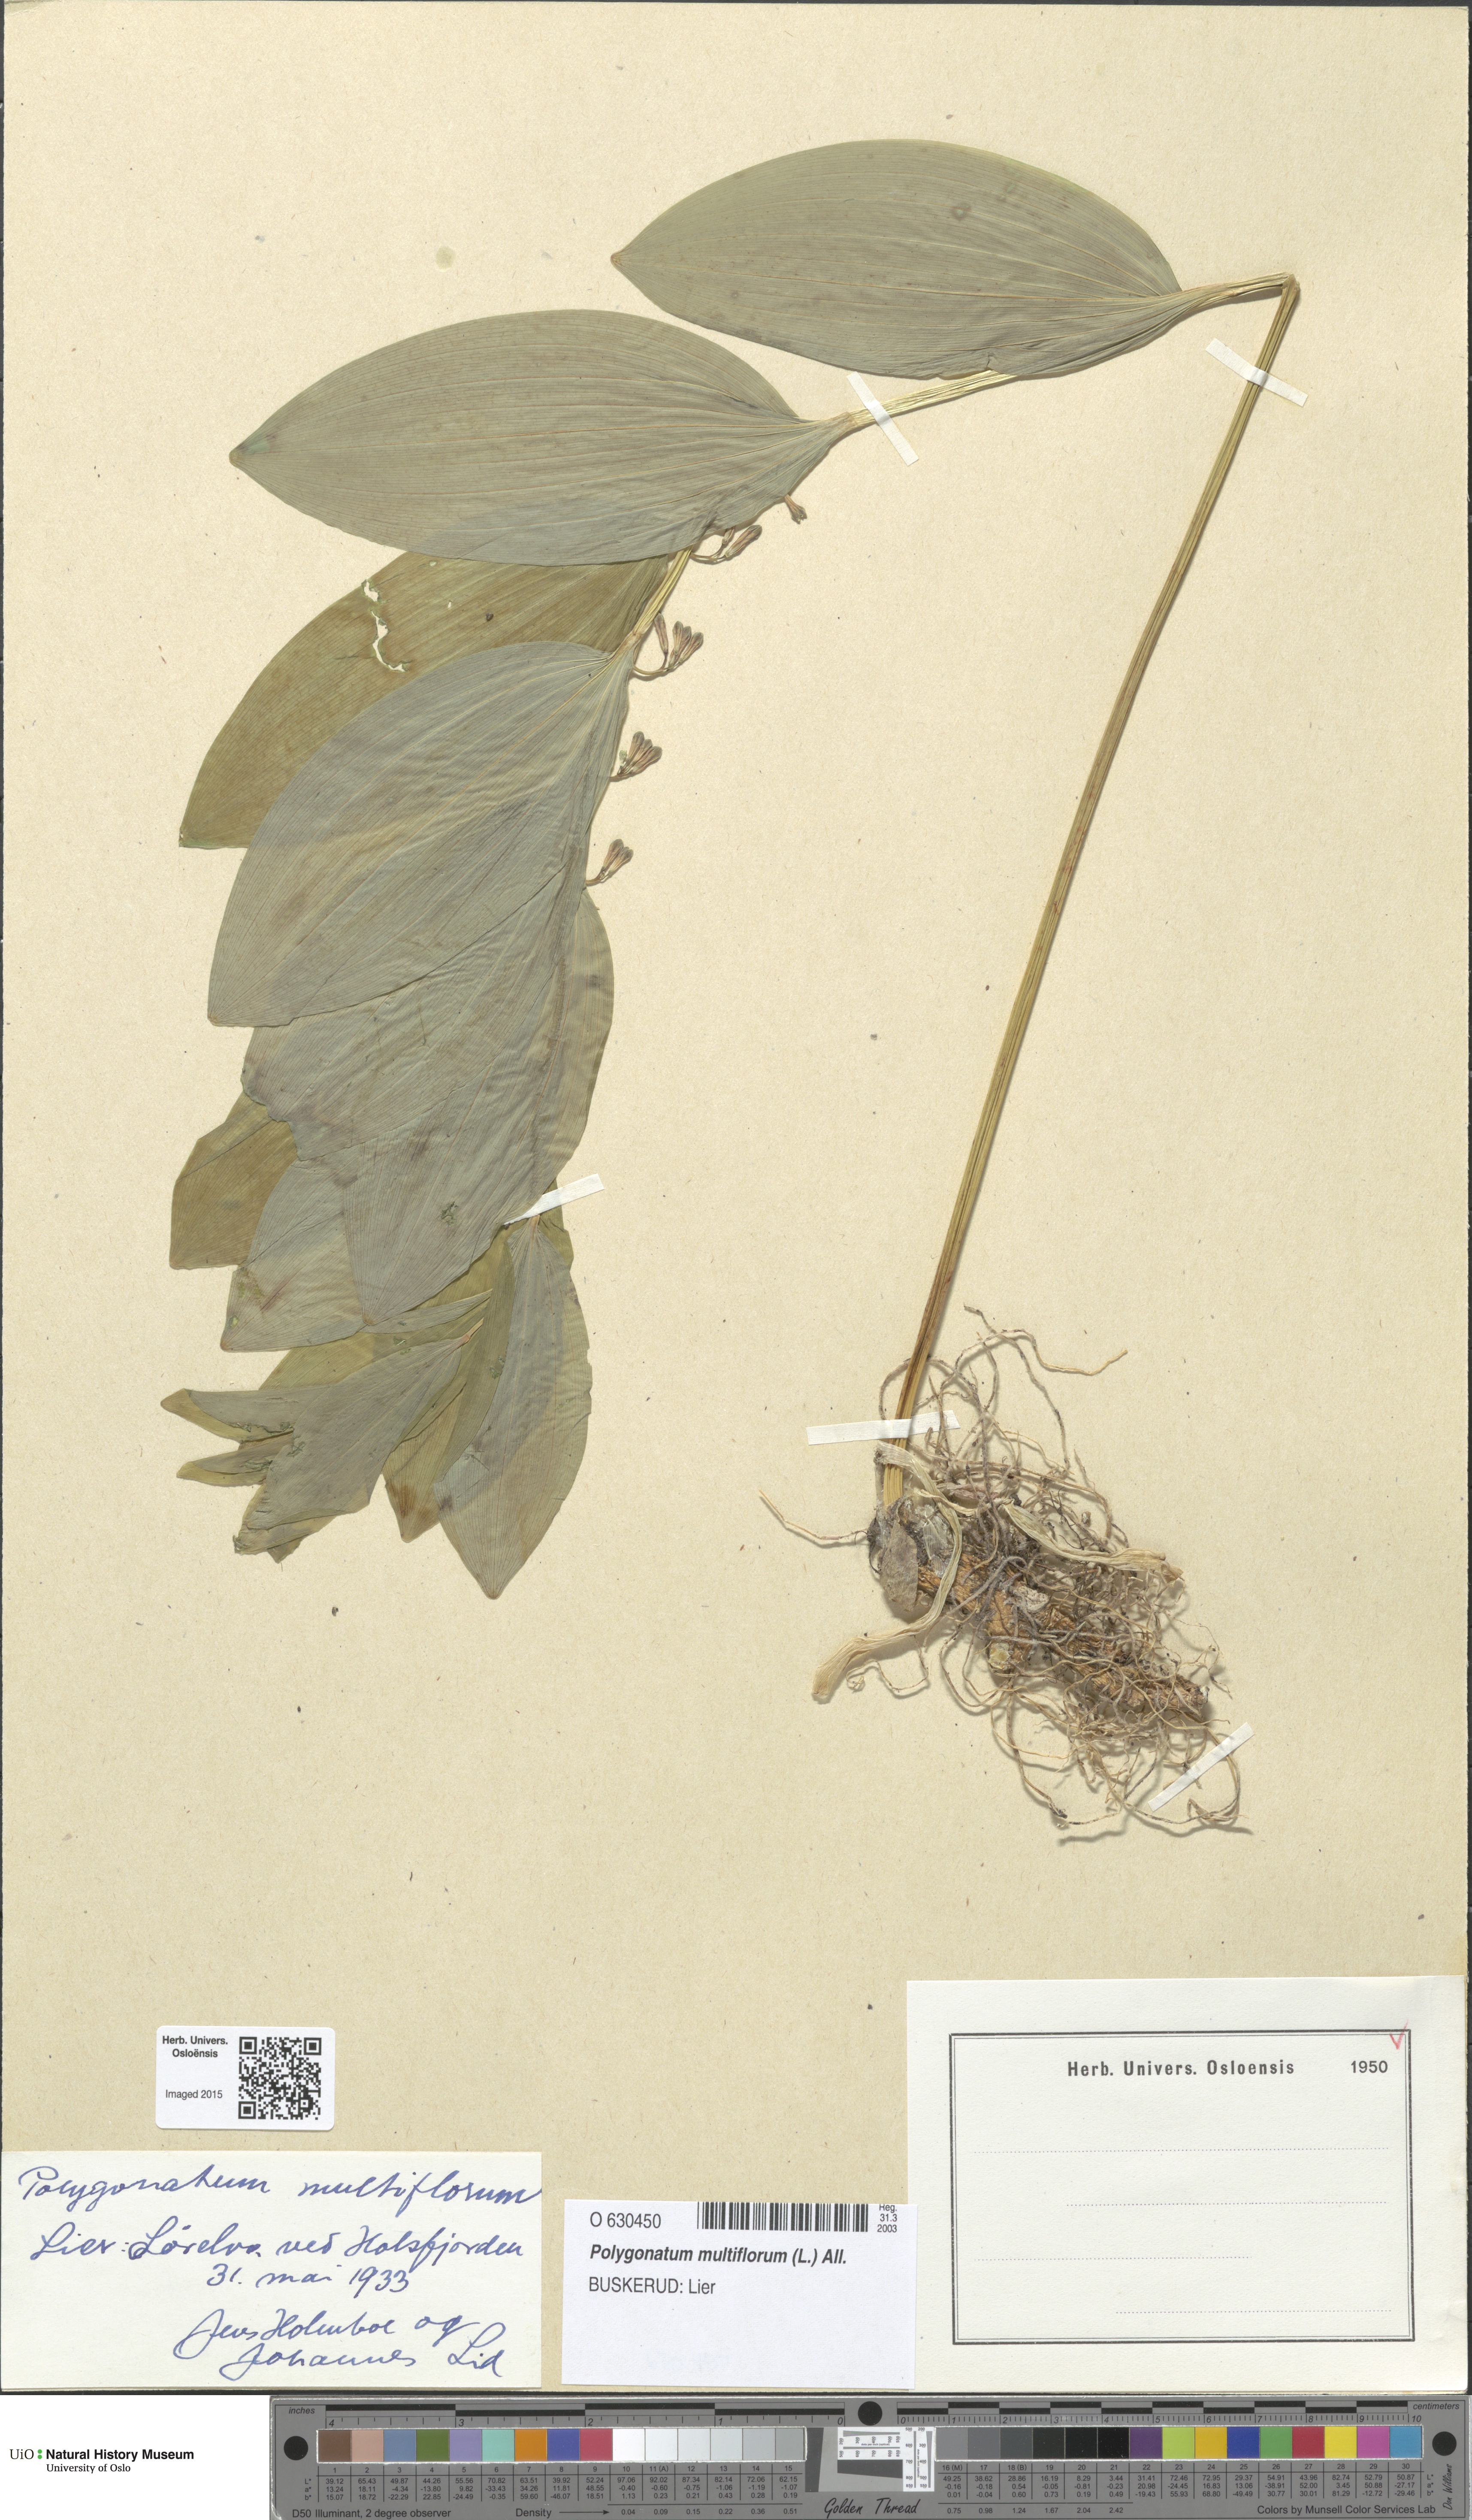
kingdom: Plantae
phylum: Tracheophyta
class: Liliopsida
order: Asparagales
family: Asparagaceae
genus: Polygonatum
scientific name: Polygonatum multiflorum
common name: Solomon's-seal
